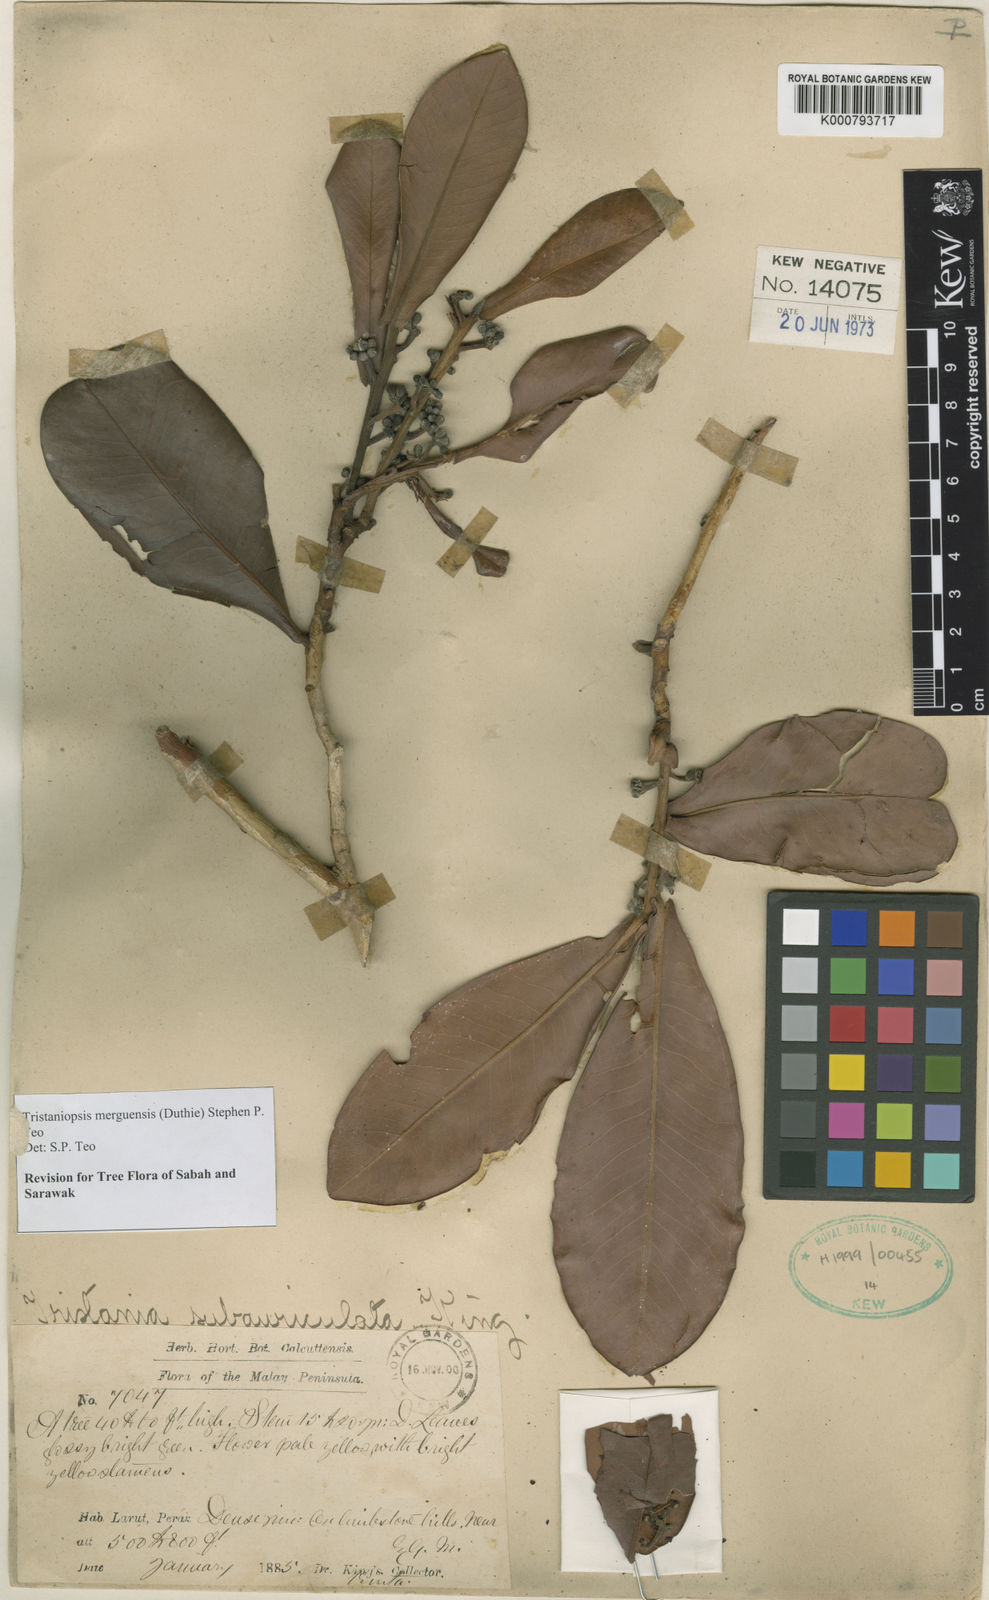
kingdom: Plantae
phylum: Tracheophyta
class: Magnoliopsida
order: Myrtales
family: Myrtaceae
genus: Tristaniopsis
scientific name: Tristaniopsis
